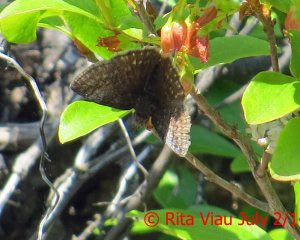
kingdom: Animalia
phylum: Arthropoda
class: Insecta
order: Lepidoptera
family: Hesperiidae
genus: Erynnis
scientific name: Erynnis icelus
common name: Dreamy Duskywing
